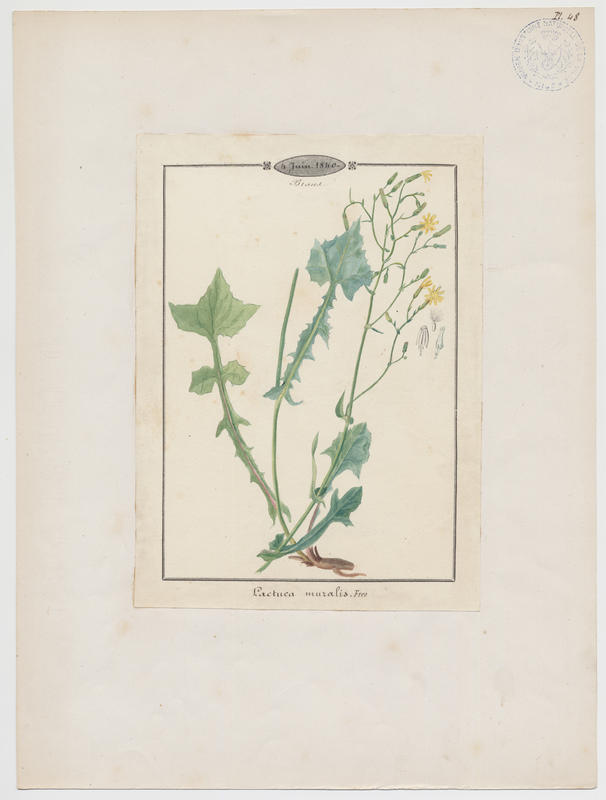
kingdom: Plantae
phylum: Tracheophyta
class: Magnoliopsida
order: Asterales
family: Asteraceae
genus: Mycelis
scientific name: Mycelis muralis
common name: Wall lettuce
